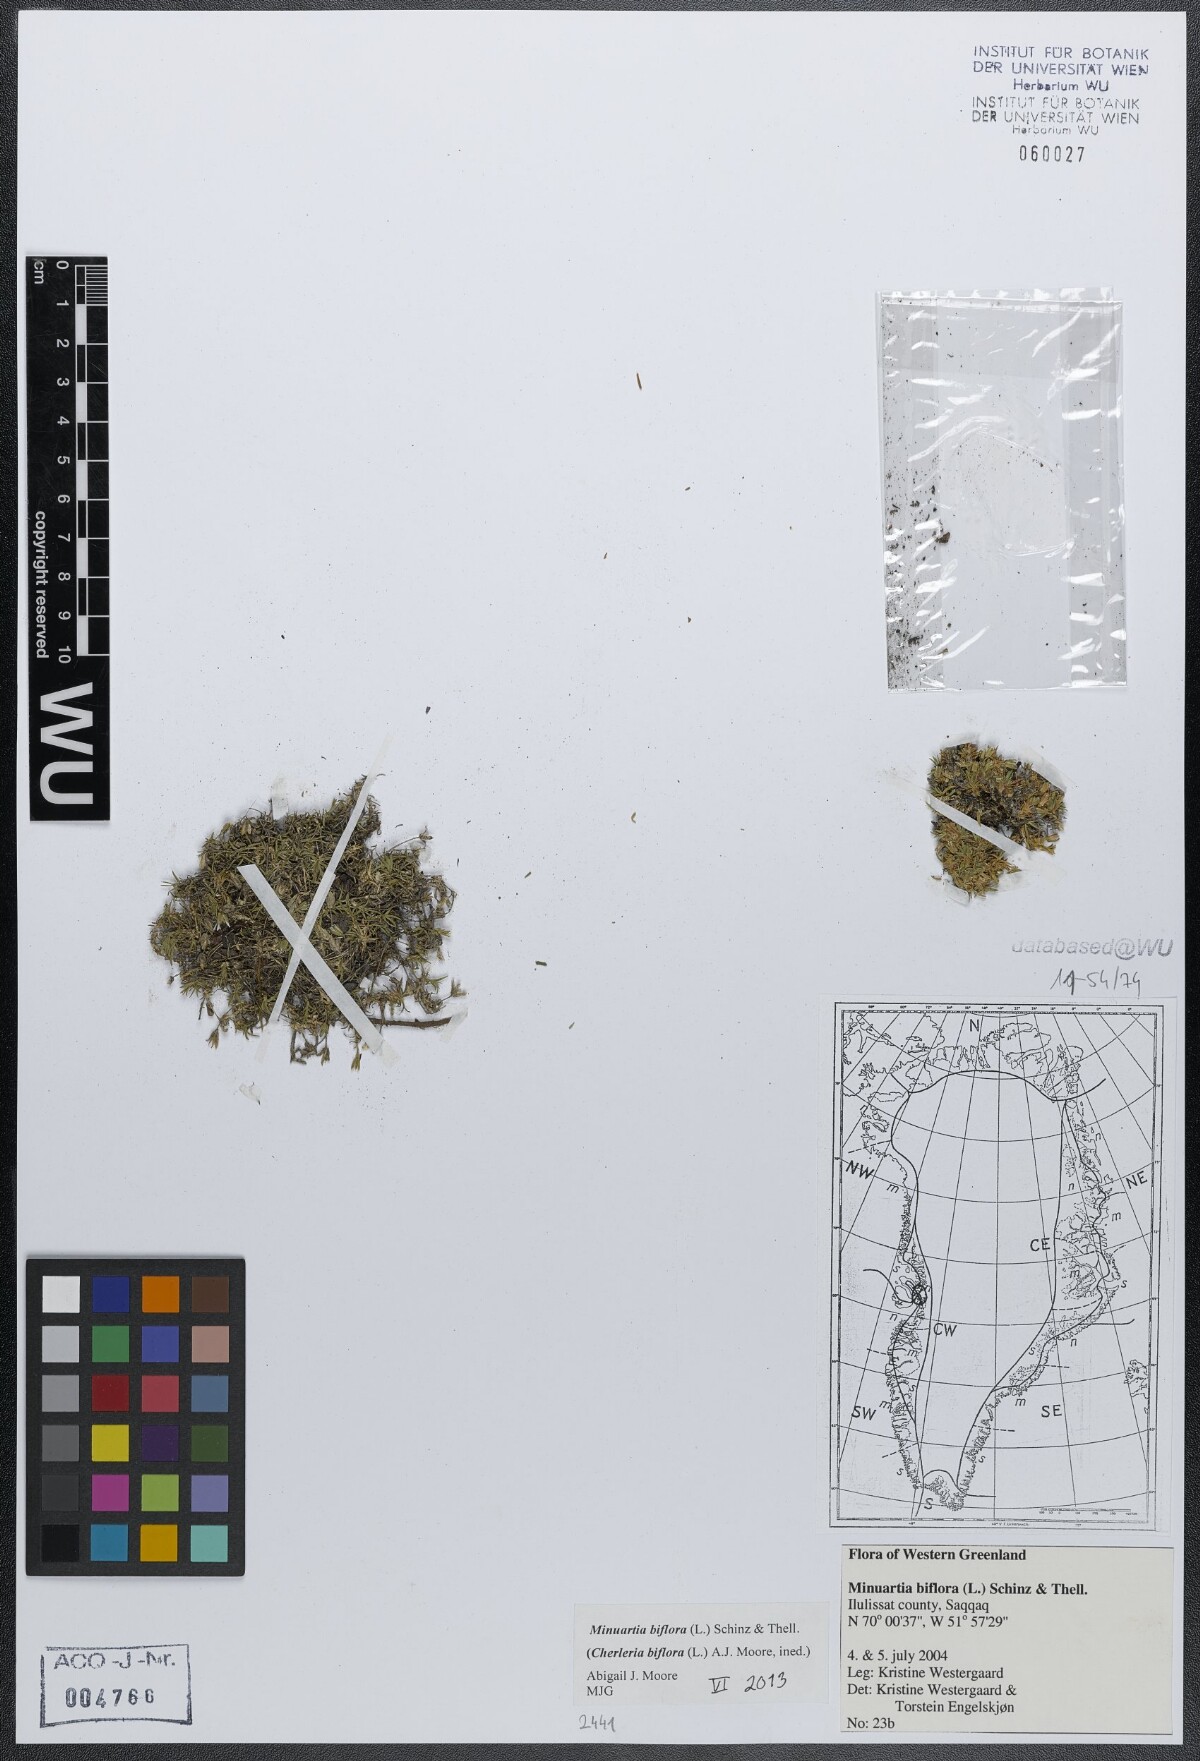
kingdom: Plantae
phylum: Tracheophyta
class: Magnoliopsida
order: Caryophyllales
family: Caryophyllaceae
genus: Cherleria
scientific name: Cherleria biflora
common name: Mountain sandwort
